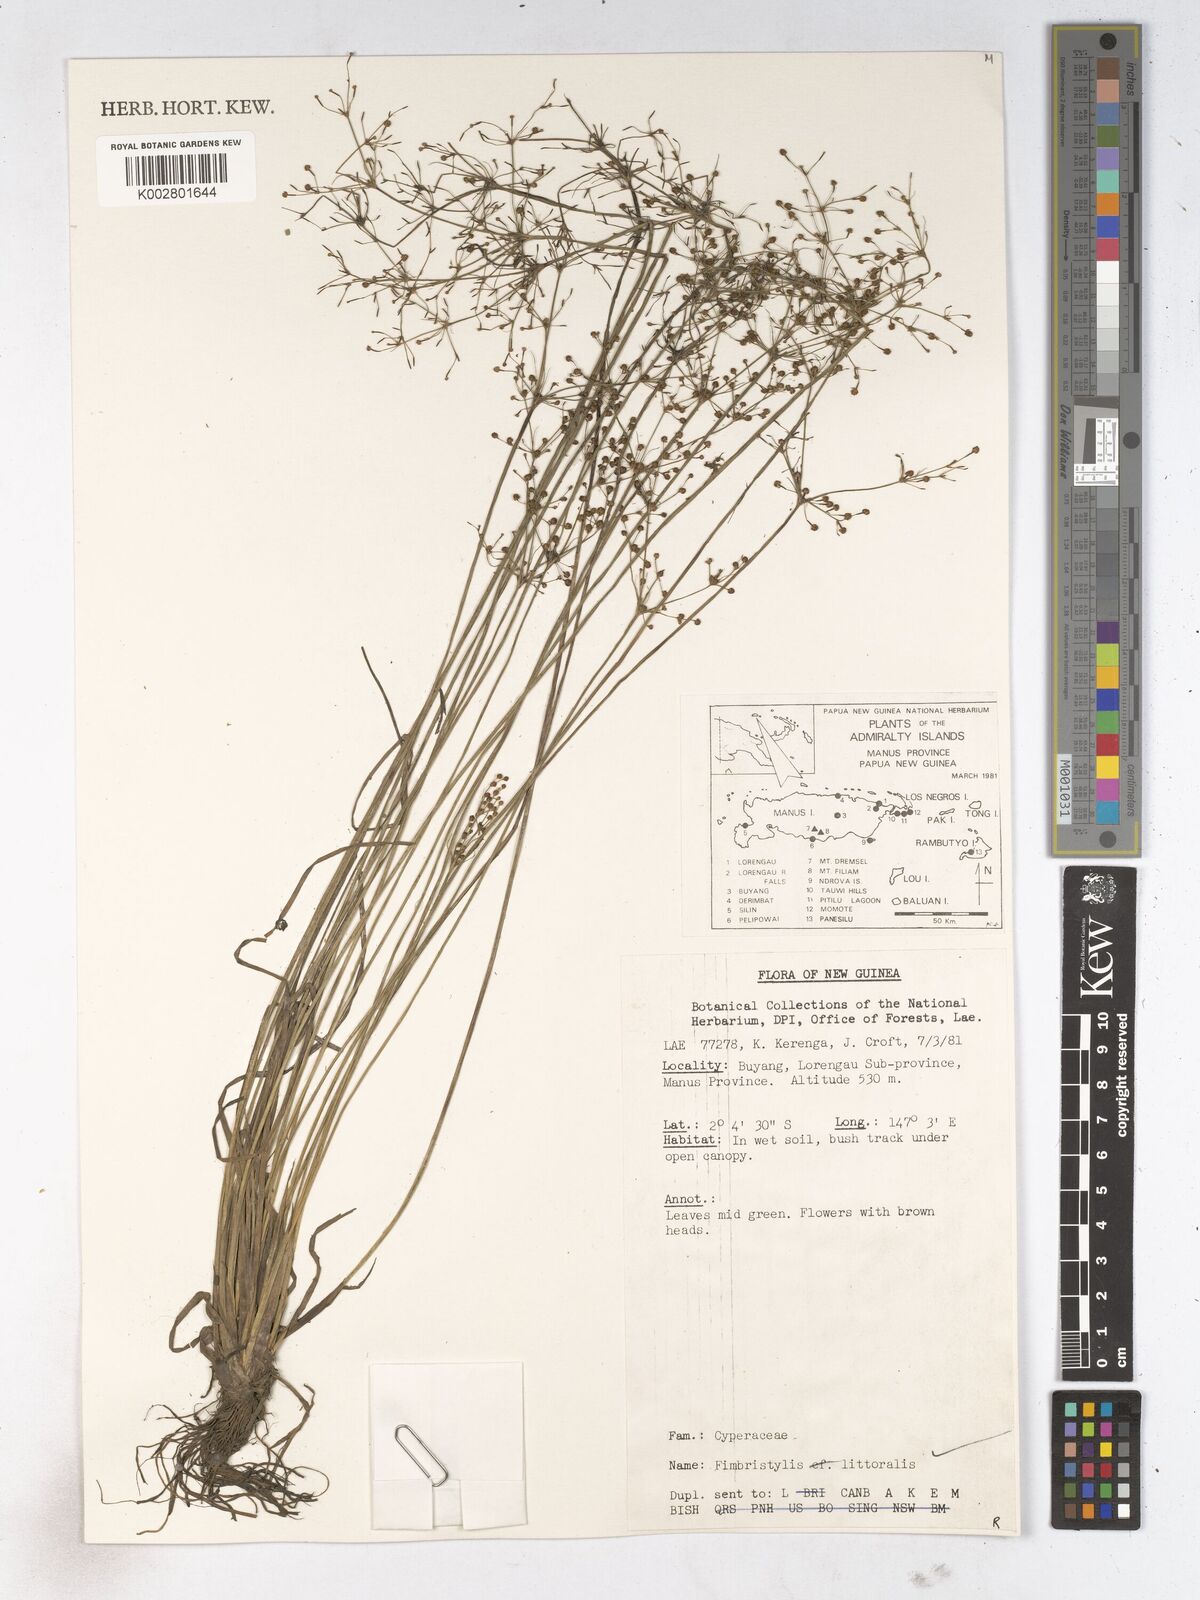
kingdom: Plantae
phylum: Tracheophyta
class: Liliopsida
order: Poales
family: Cyperaceae
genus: Fimbristylis
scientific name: Fimbristylis littoralis
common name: Fimbry
